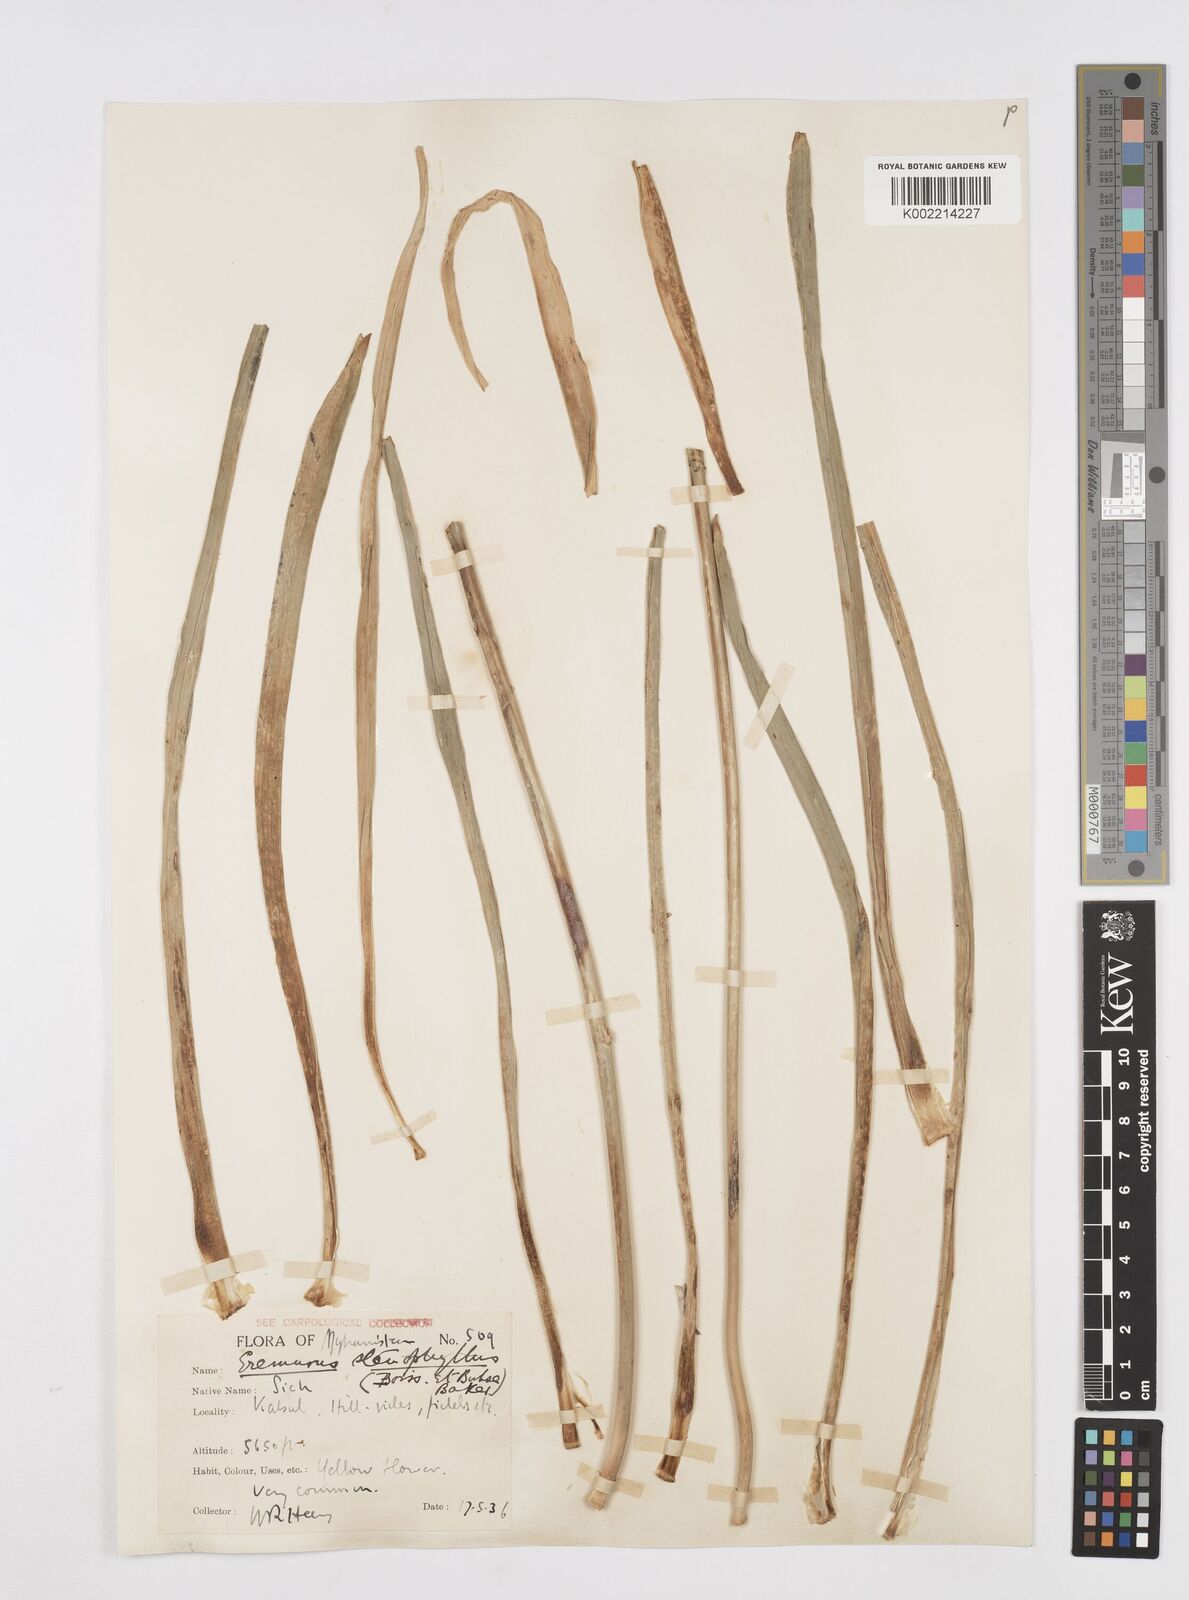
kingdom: Plantae
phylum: Tracheophyta
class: Liliopsida
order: Asparagales
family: Asphodelaceae
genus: Eremurus
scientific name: Eremurus stenophyllus
